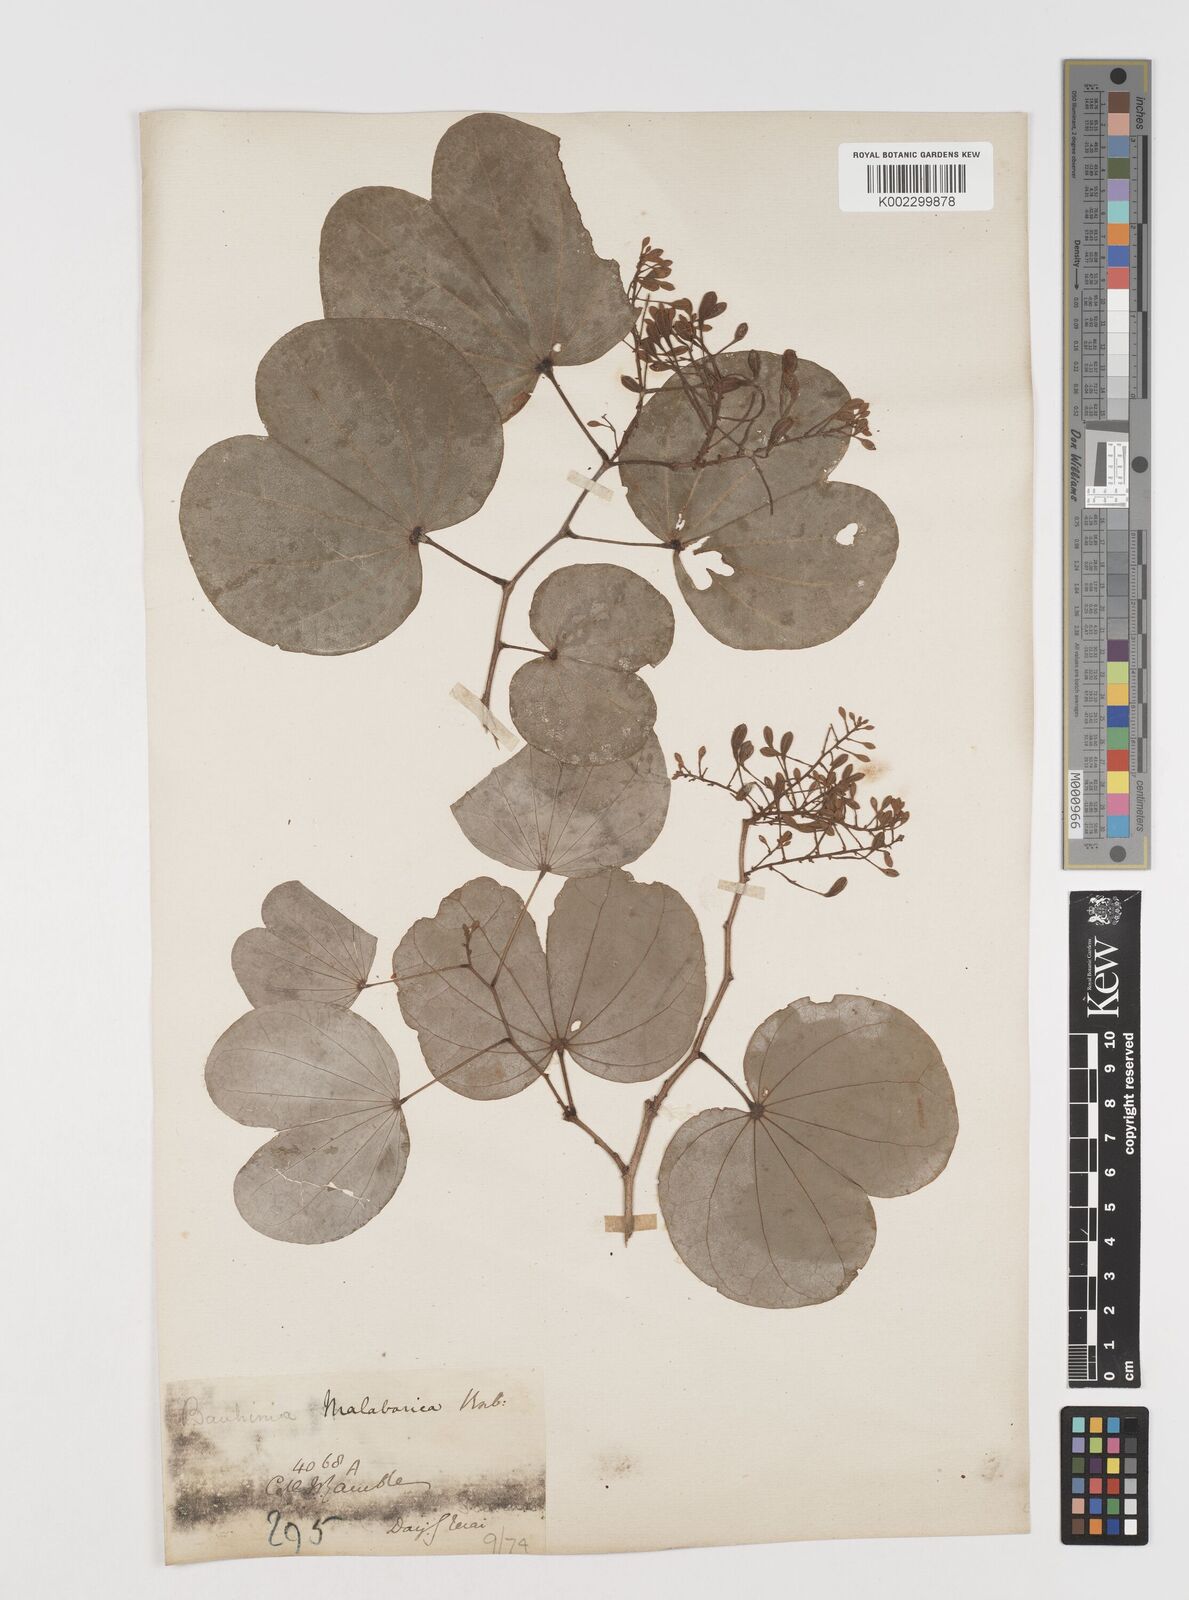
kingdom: Plantae
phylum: Tracheophyta
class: Magnoliopsida
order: Fabales
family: Fabaceae
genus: Piliostigma
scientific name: Piliostigma malabaricum
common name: Malabar bauhinia
